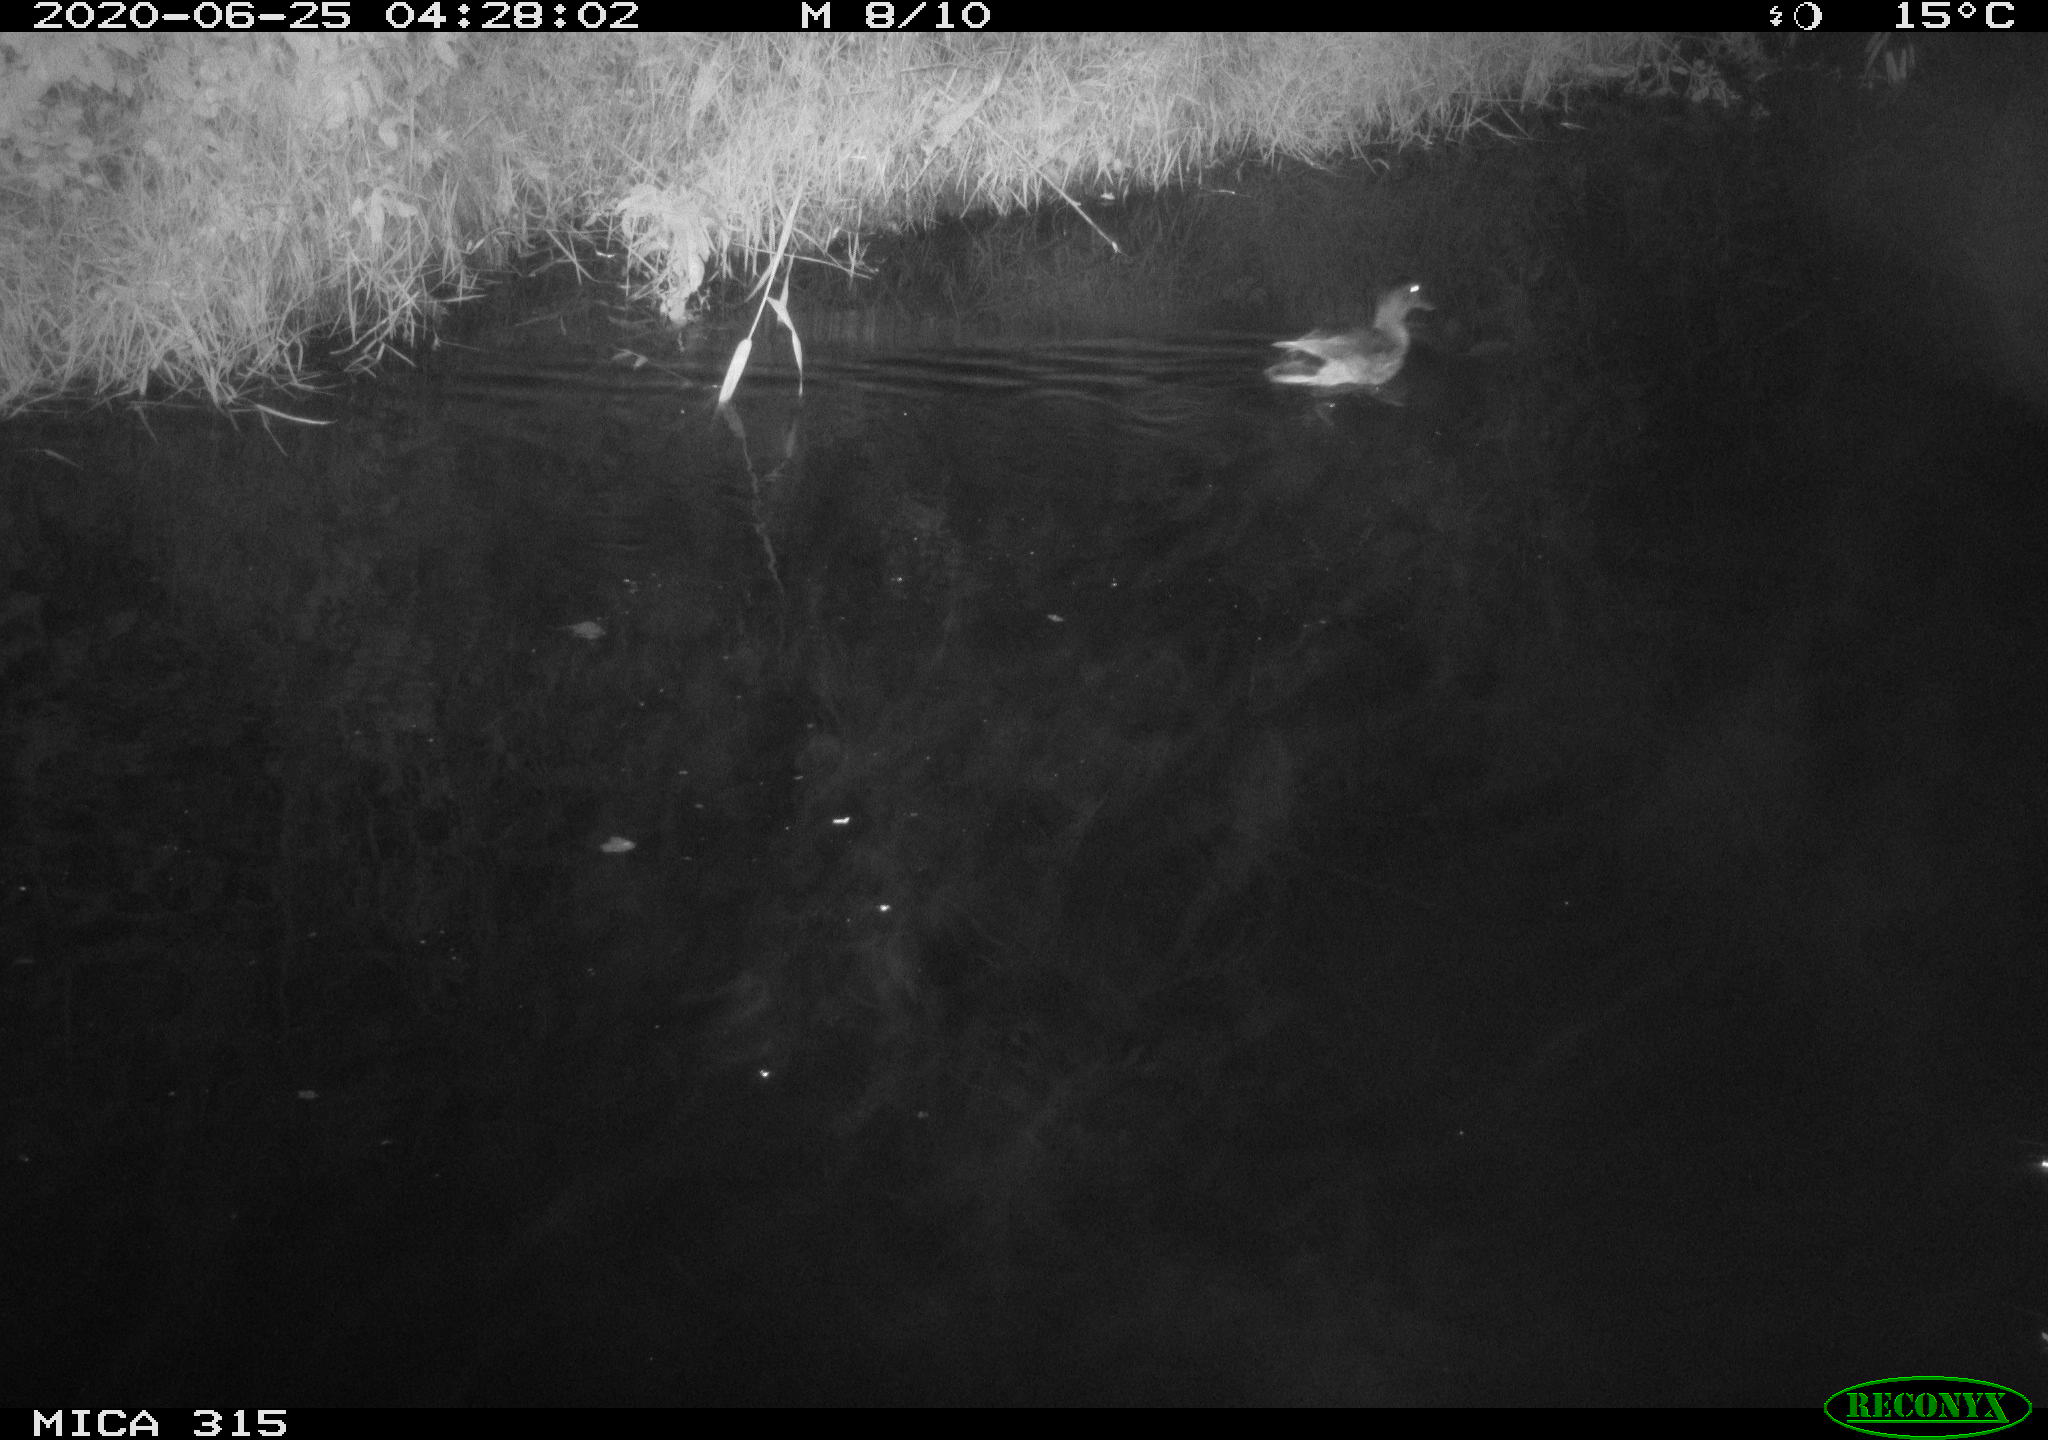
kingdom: Animalia
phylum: Chordata
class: Aves
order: Anseriformes
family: Anatidae
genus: Anas
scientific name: Anas platyrhynchos
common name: Mallard
